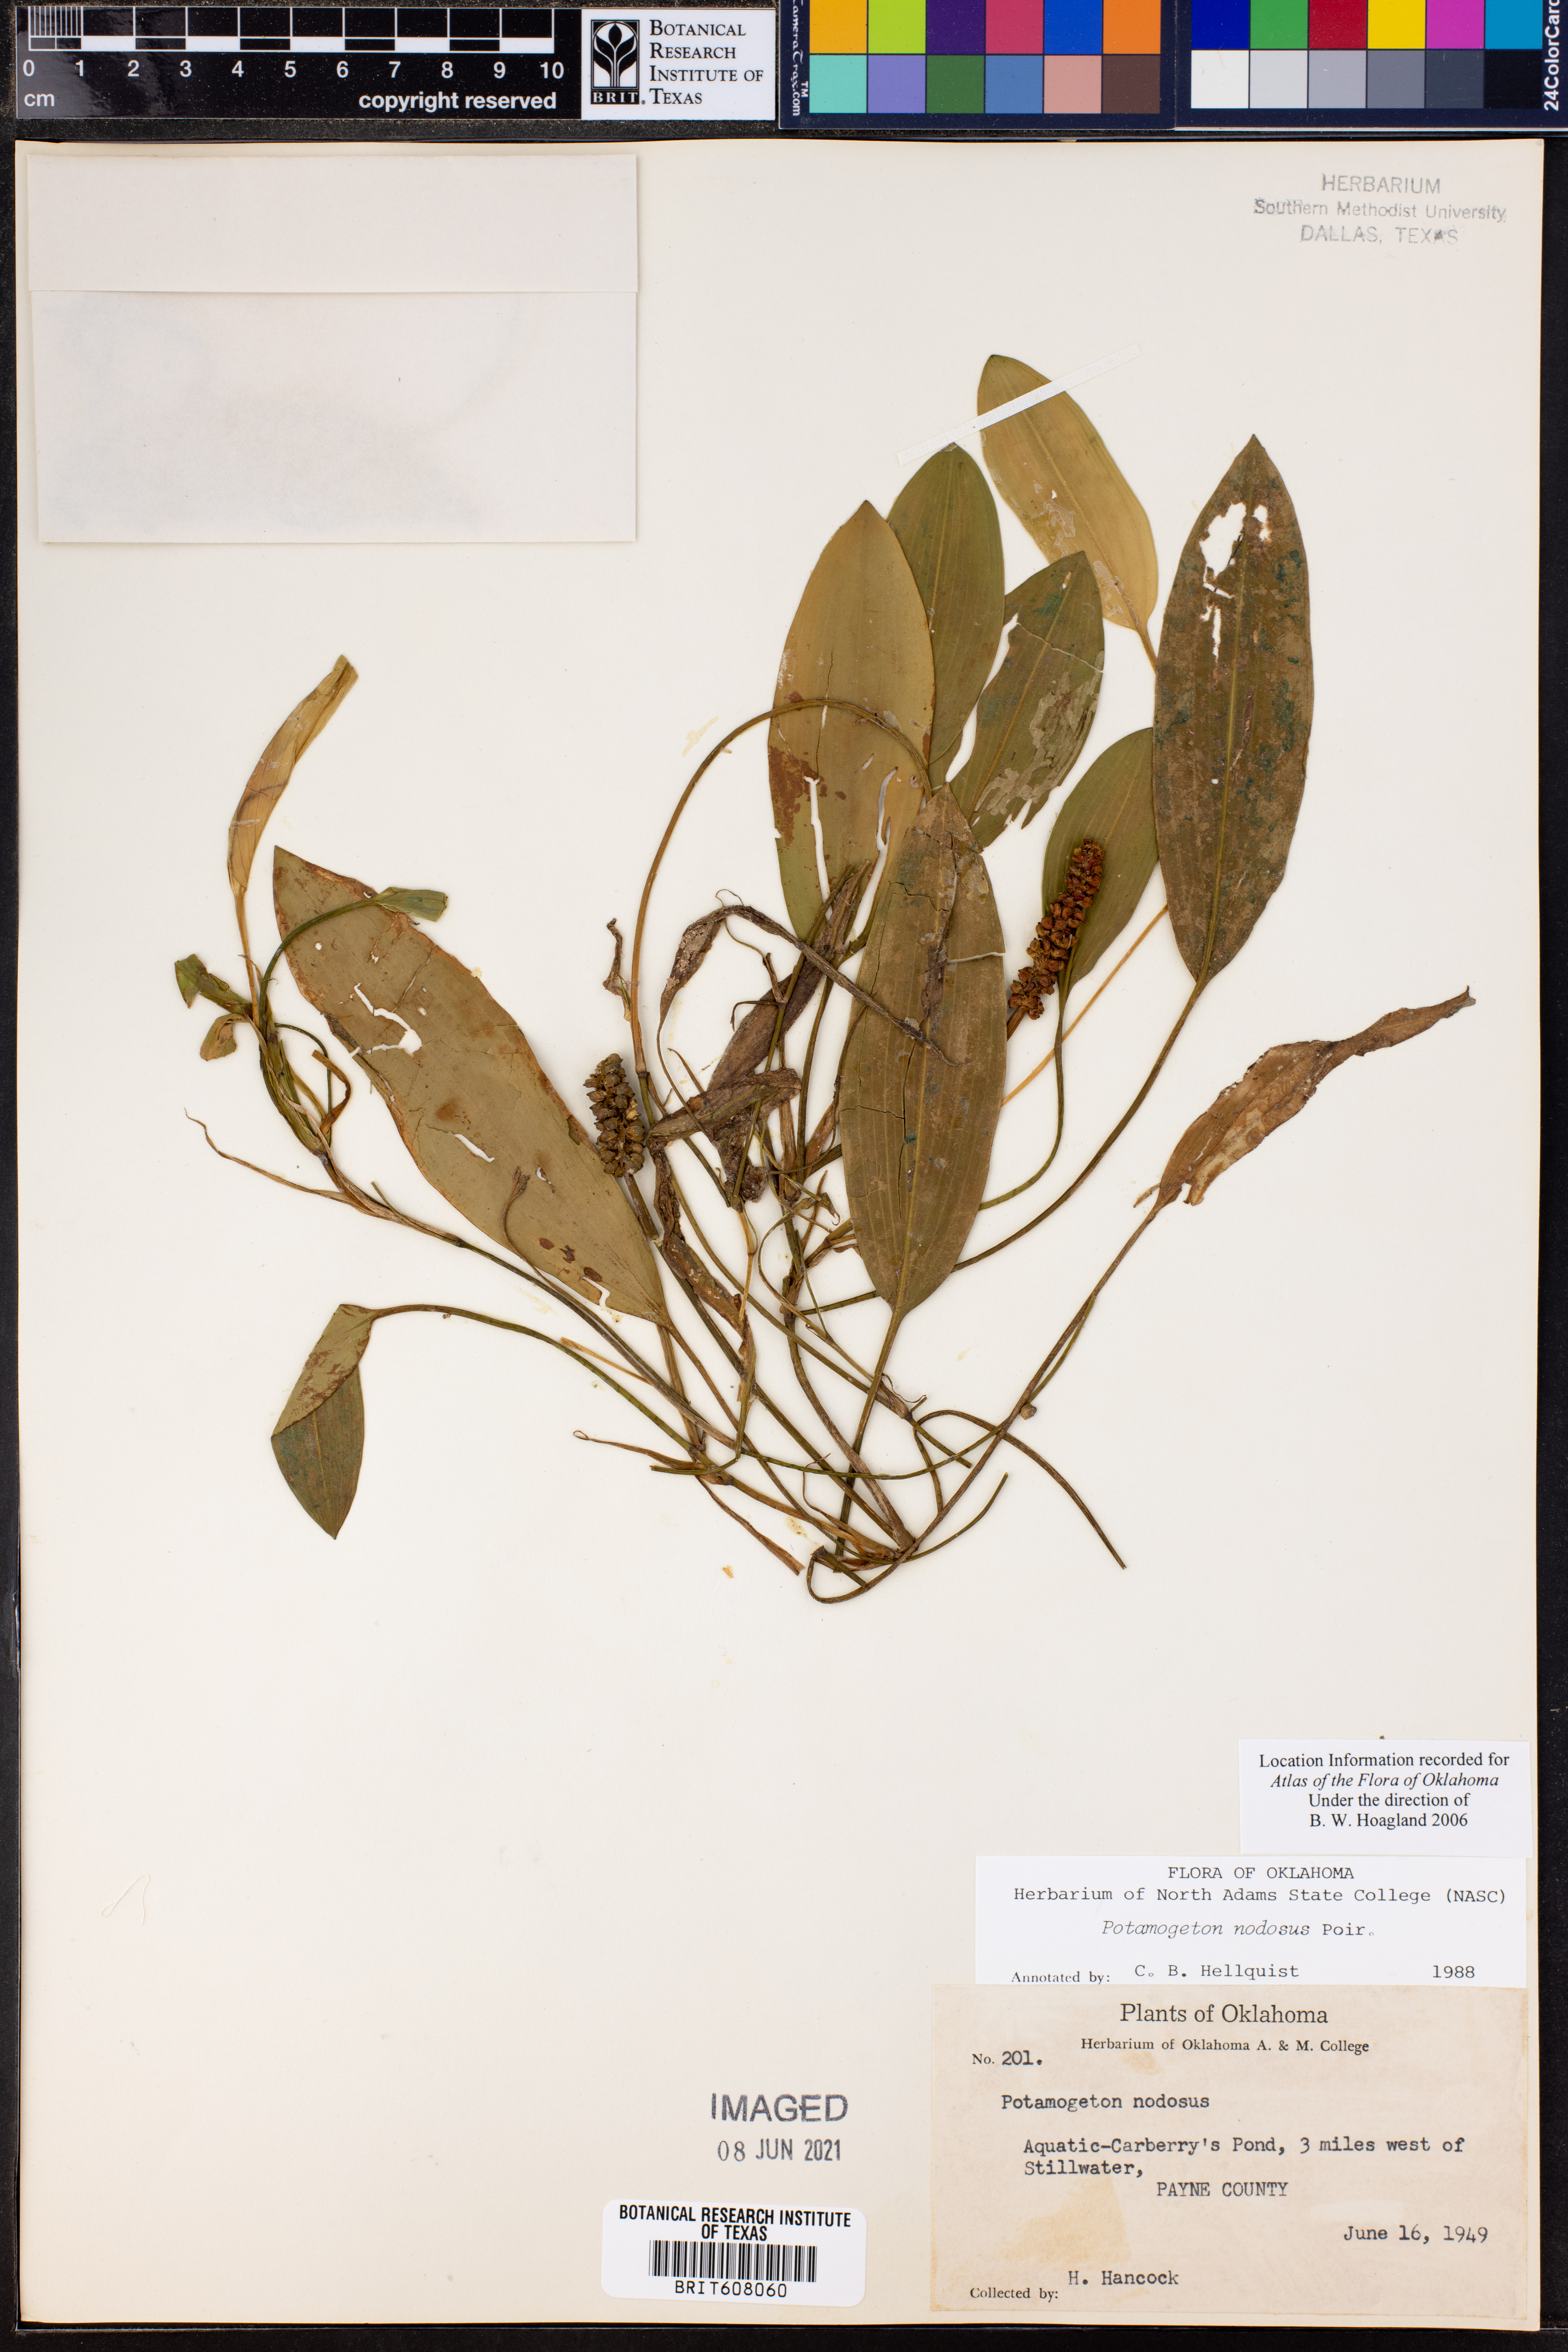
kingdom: Plantae
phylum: Tracheophyta
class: Liliopsida
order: Alismatales
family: Potamogetonaceae
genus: Potamogeton
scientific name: Potamogeton nodosus
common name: Loddon pondweed
